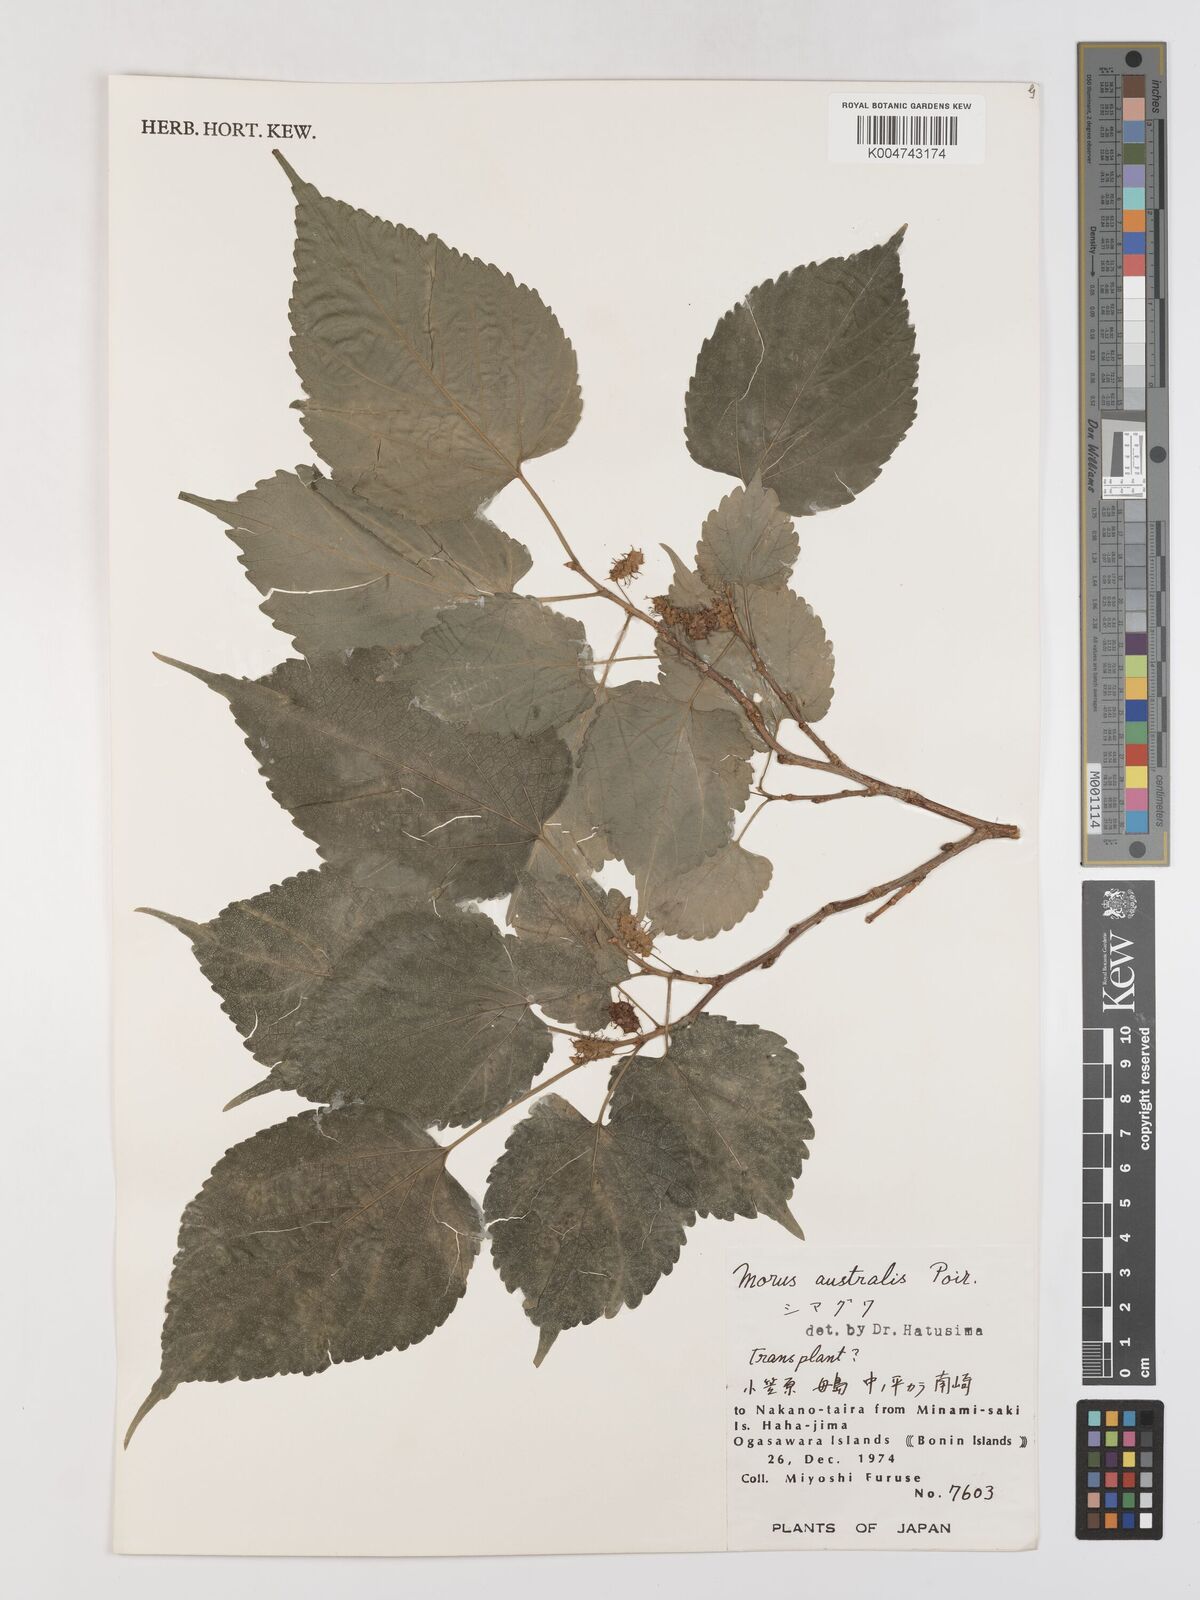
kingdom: Plantae
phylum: Tracheophyta
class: Magnoliopsida
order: Rosales
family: Moraceae
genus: Morus
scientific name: Morus indica
